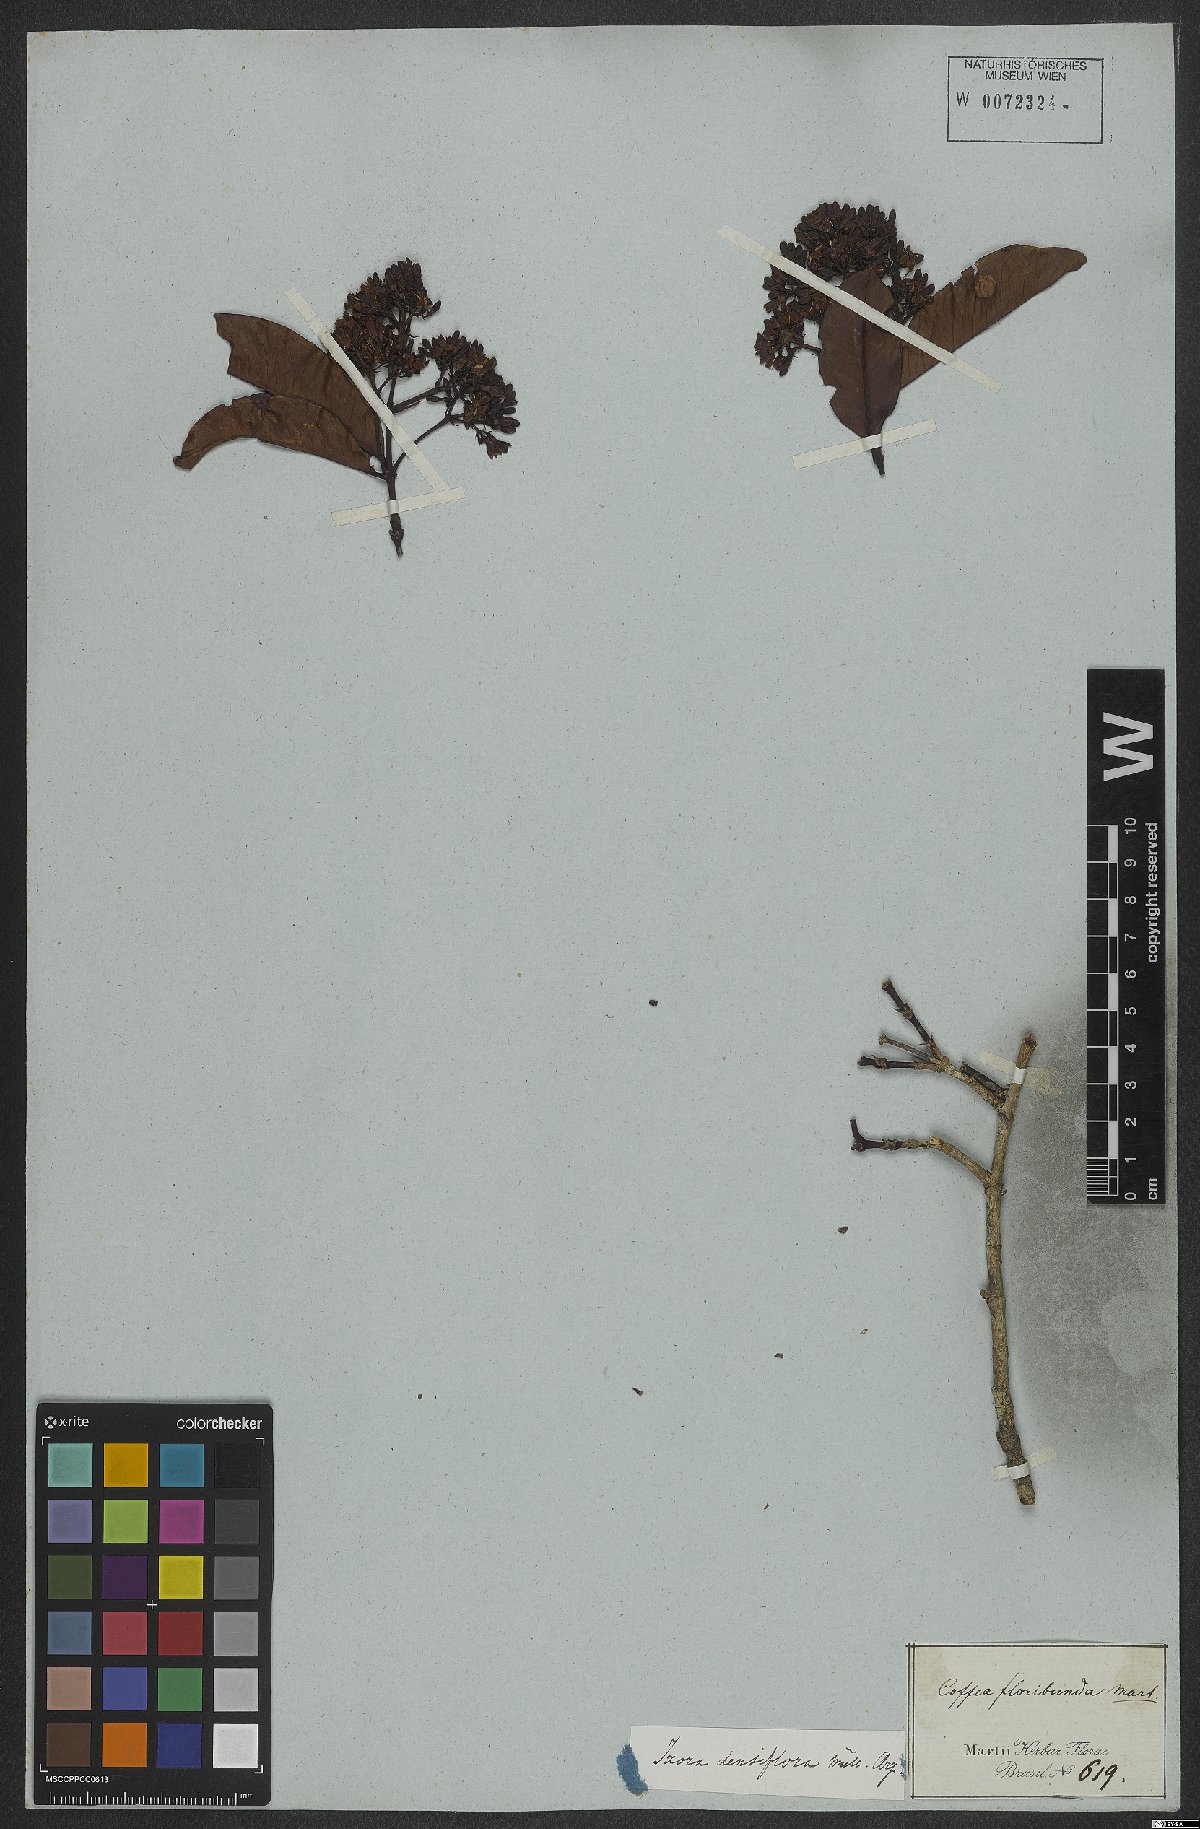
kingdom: Plantae
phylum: Tracheophyta
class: Magnoliopsida
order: Gentianales
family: Rubiaceae
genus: Ixora
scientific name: Ixora densiflora
